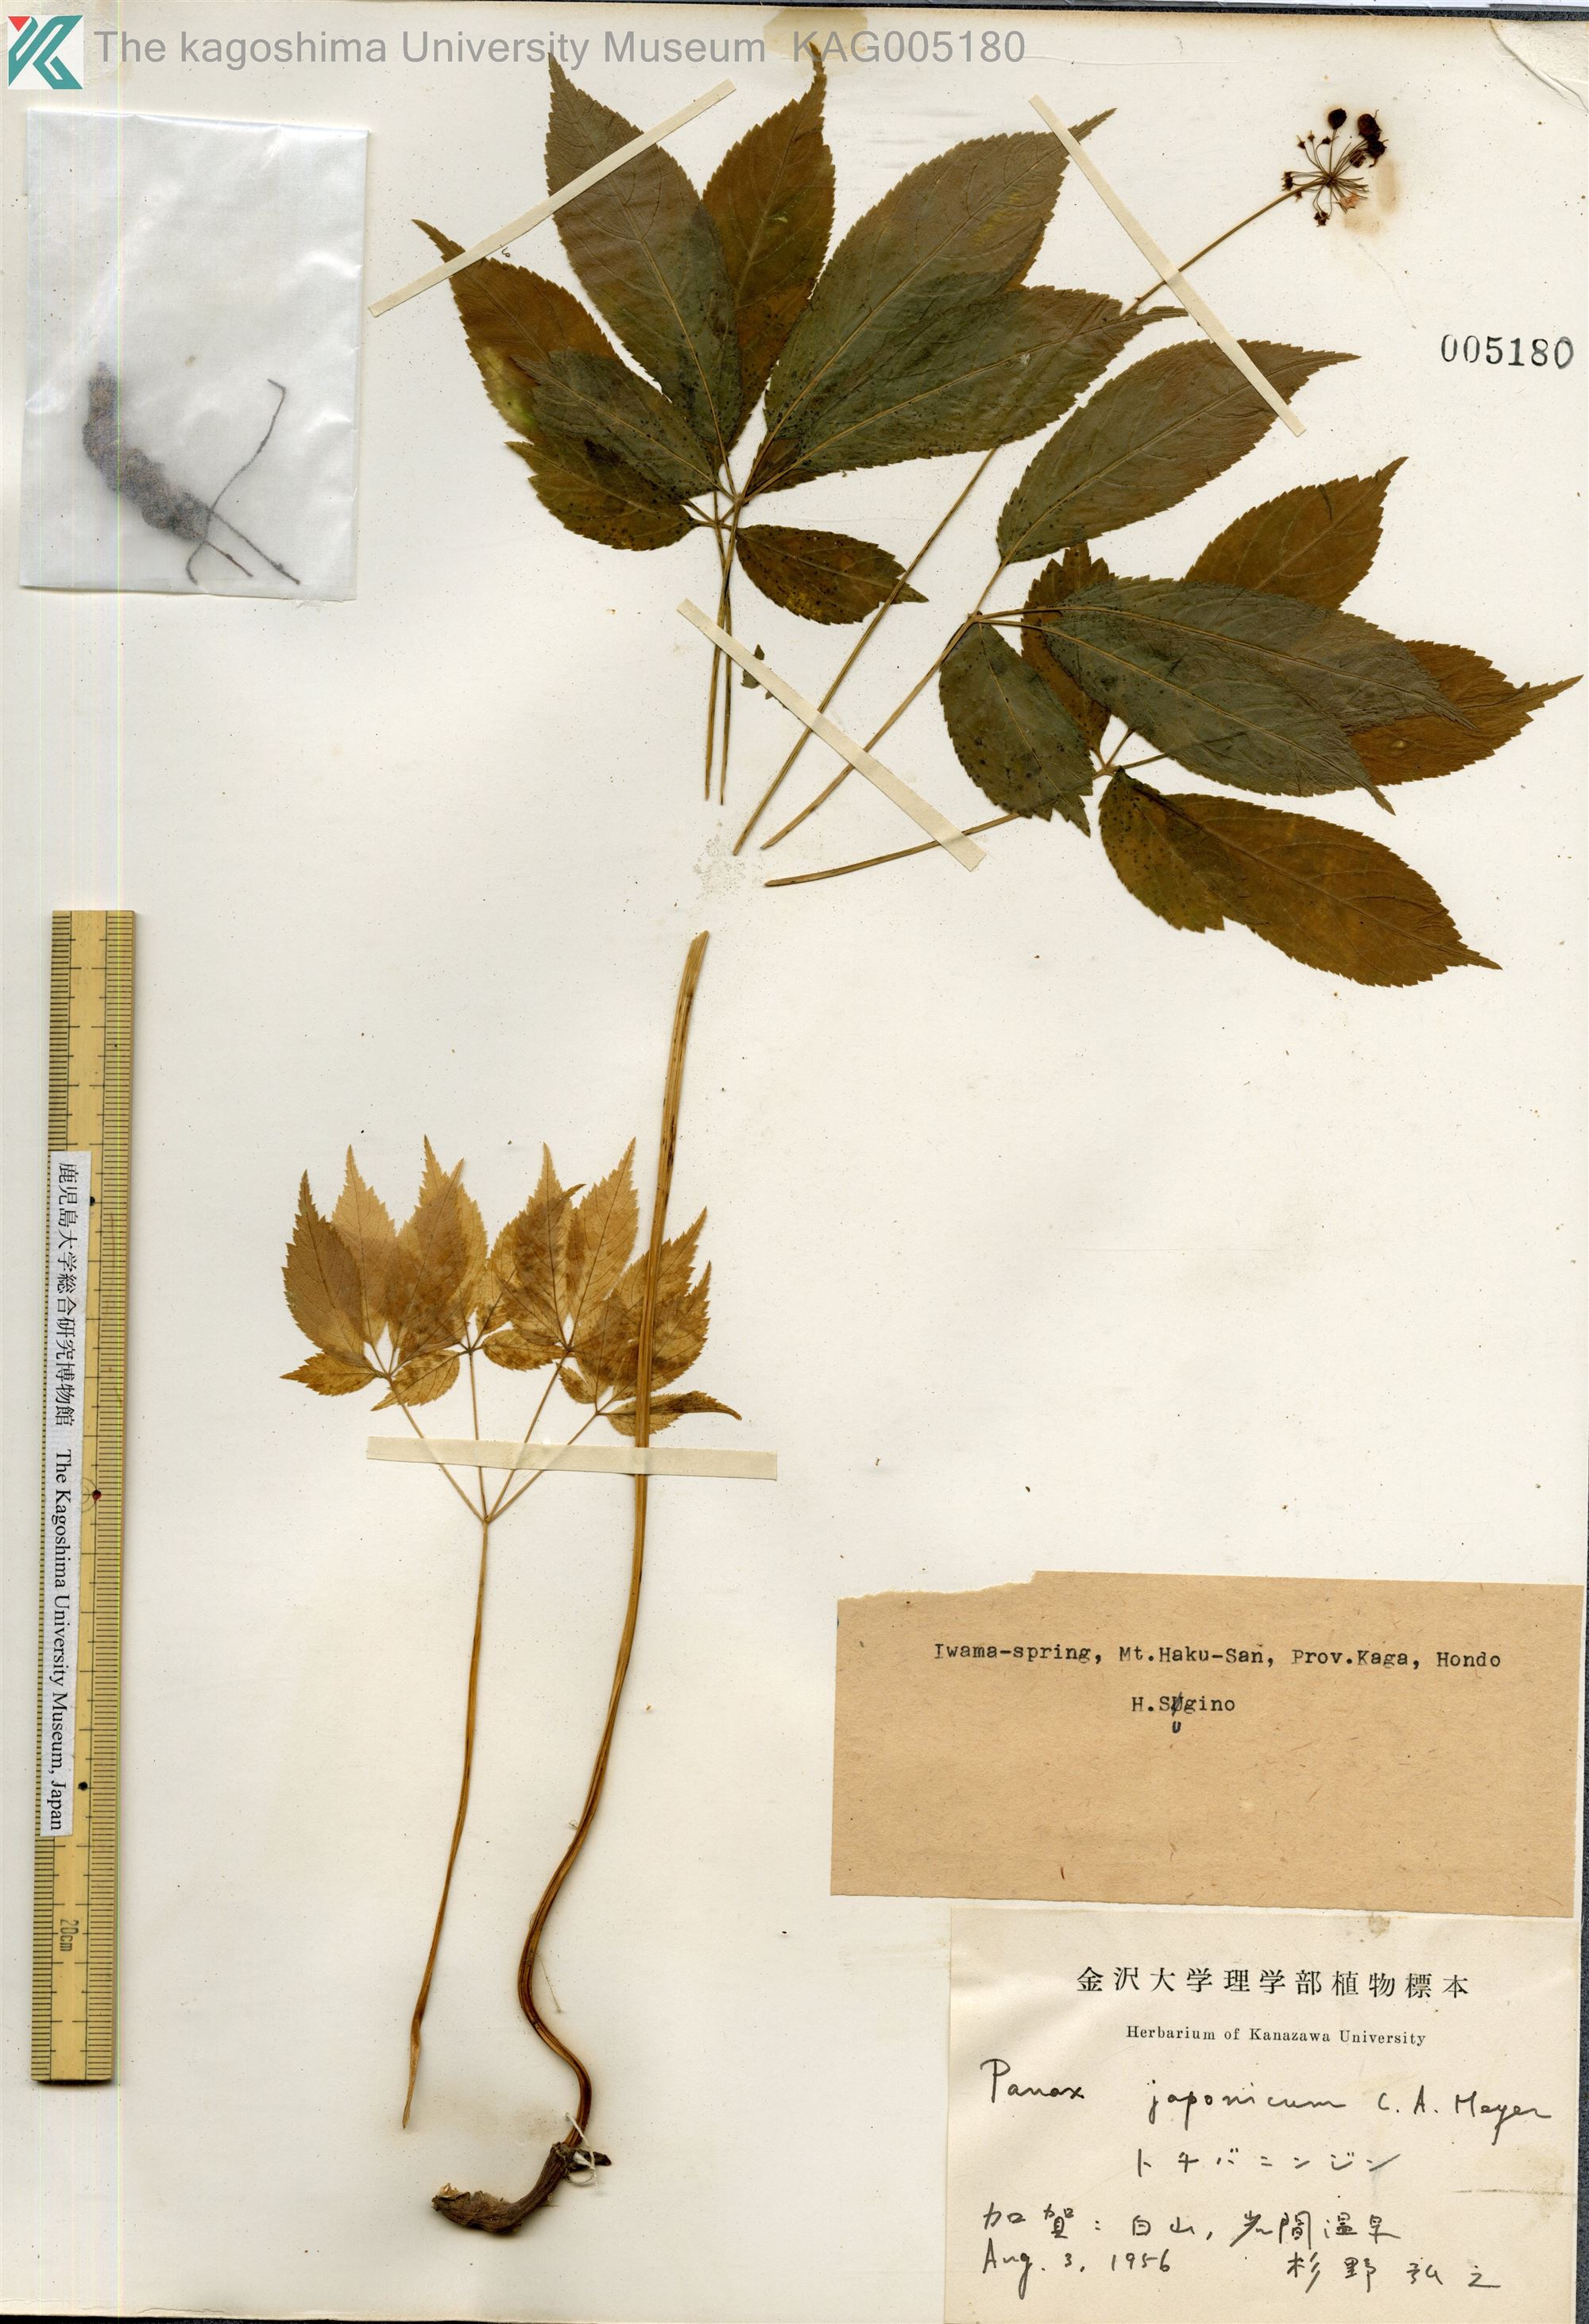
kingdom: Plantae
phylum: Tracheophyta
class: Magnoliopsida
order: Apiales
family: Araliaceae
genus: Panax
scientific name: Panax japonicus
